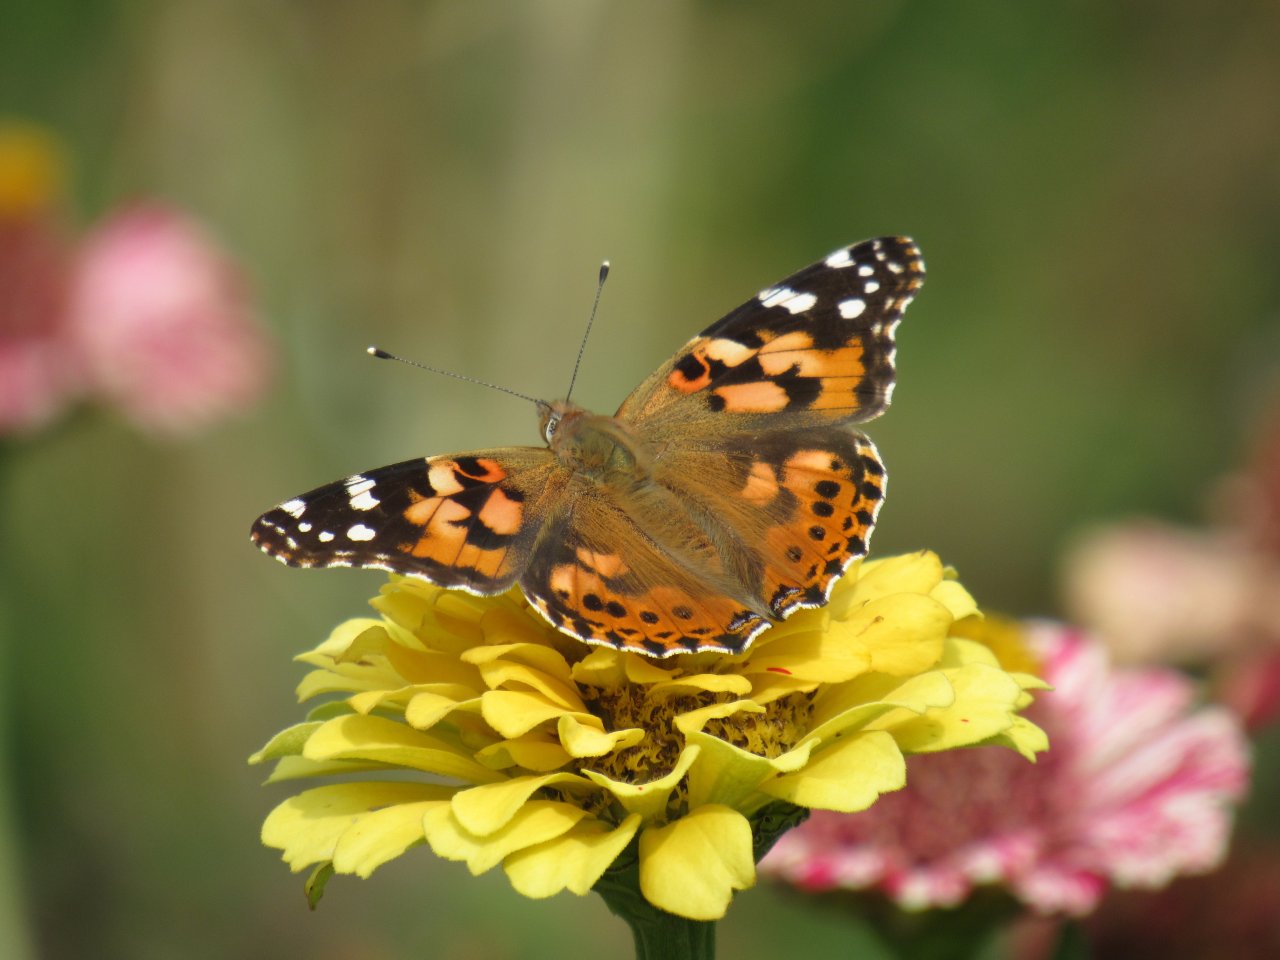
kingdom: Animalia
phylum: Arthropoda
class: Insecta
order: Lepidoptera
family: Nymphalidae
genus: Vanessa
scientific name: Vanessa cardui
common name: Painted Lady
